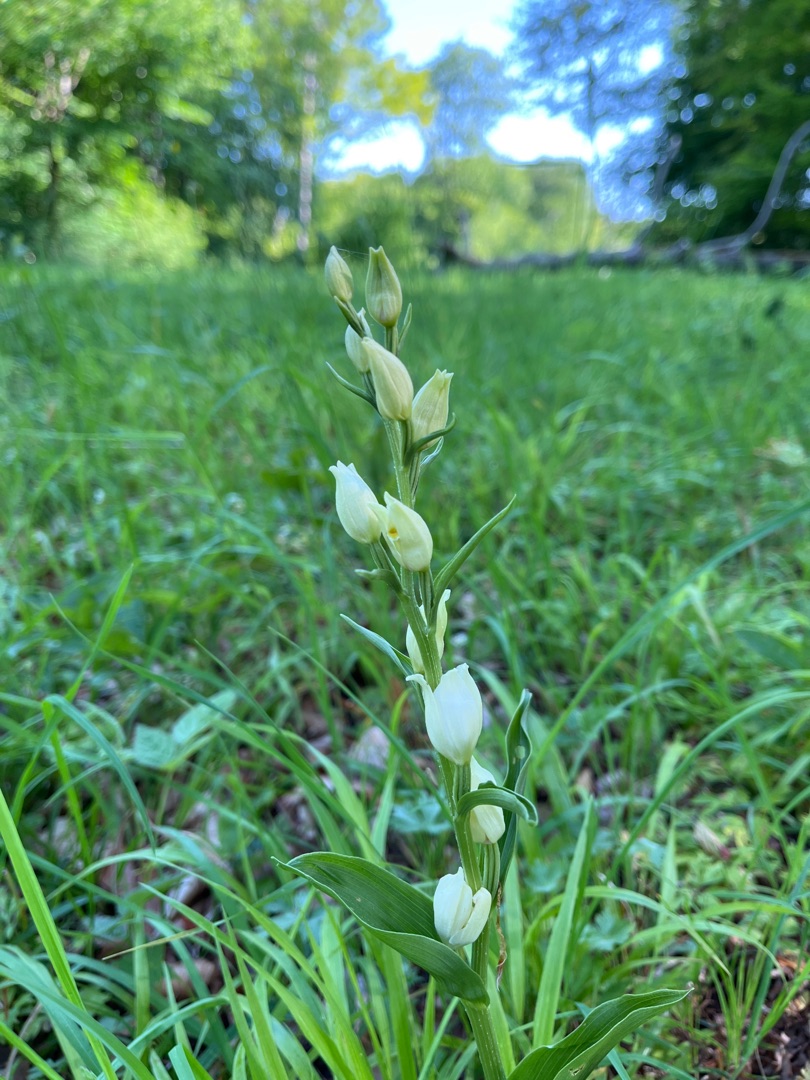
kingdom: Plantae
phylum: Tracheophyta
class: Liliopsida
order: Asparagales
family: Orchidaceae
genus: Cephalanthera
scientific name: Cephalanthera longifolia
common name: Sværd-skovlilje
